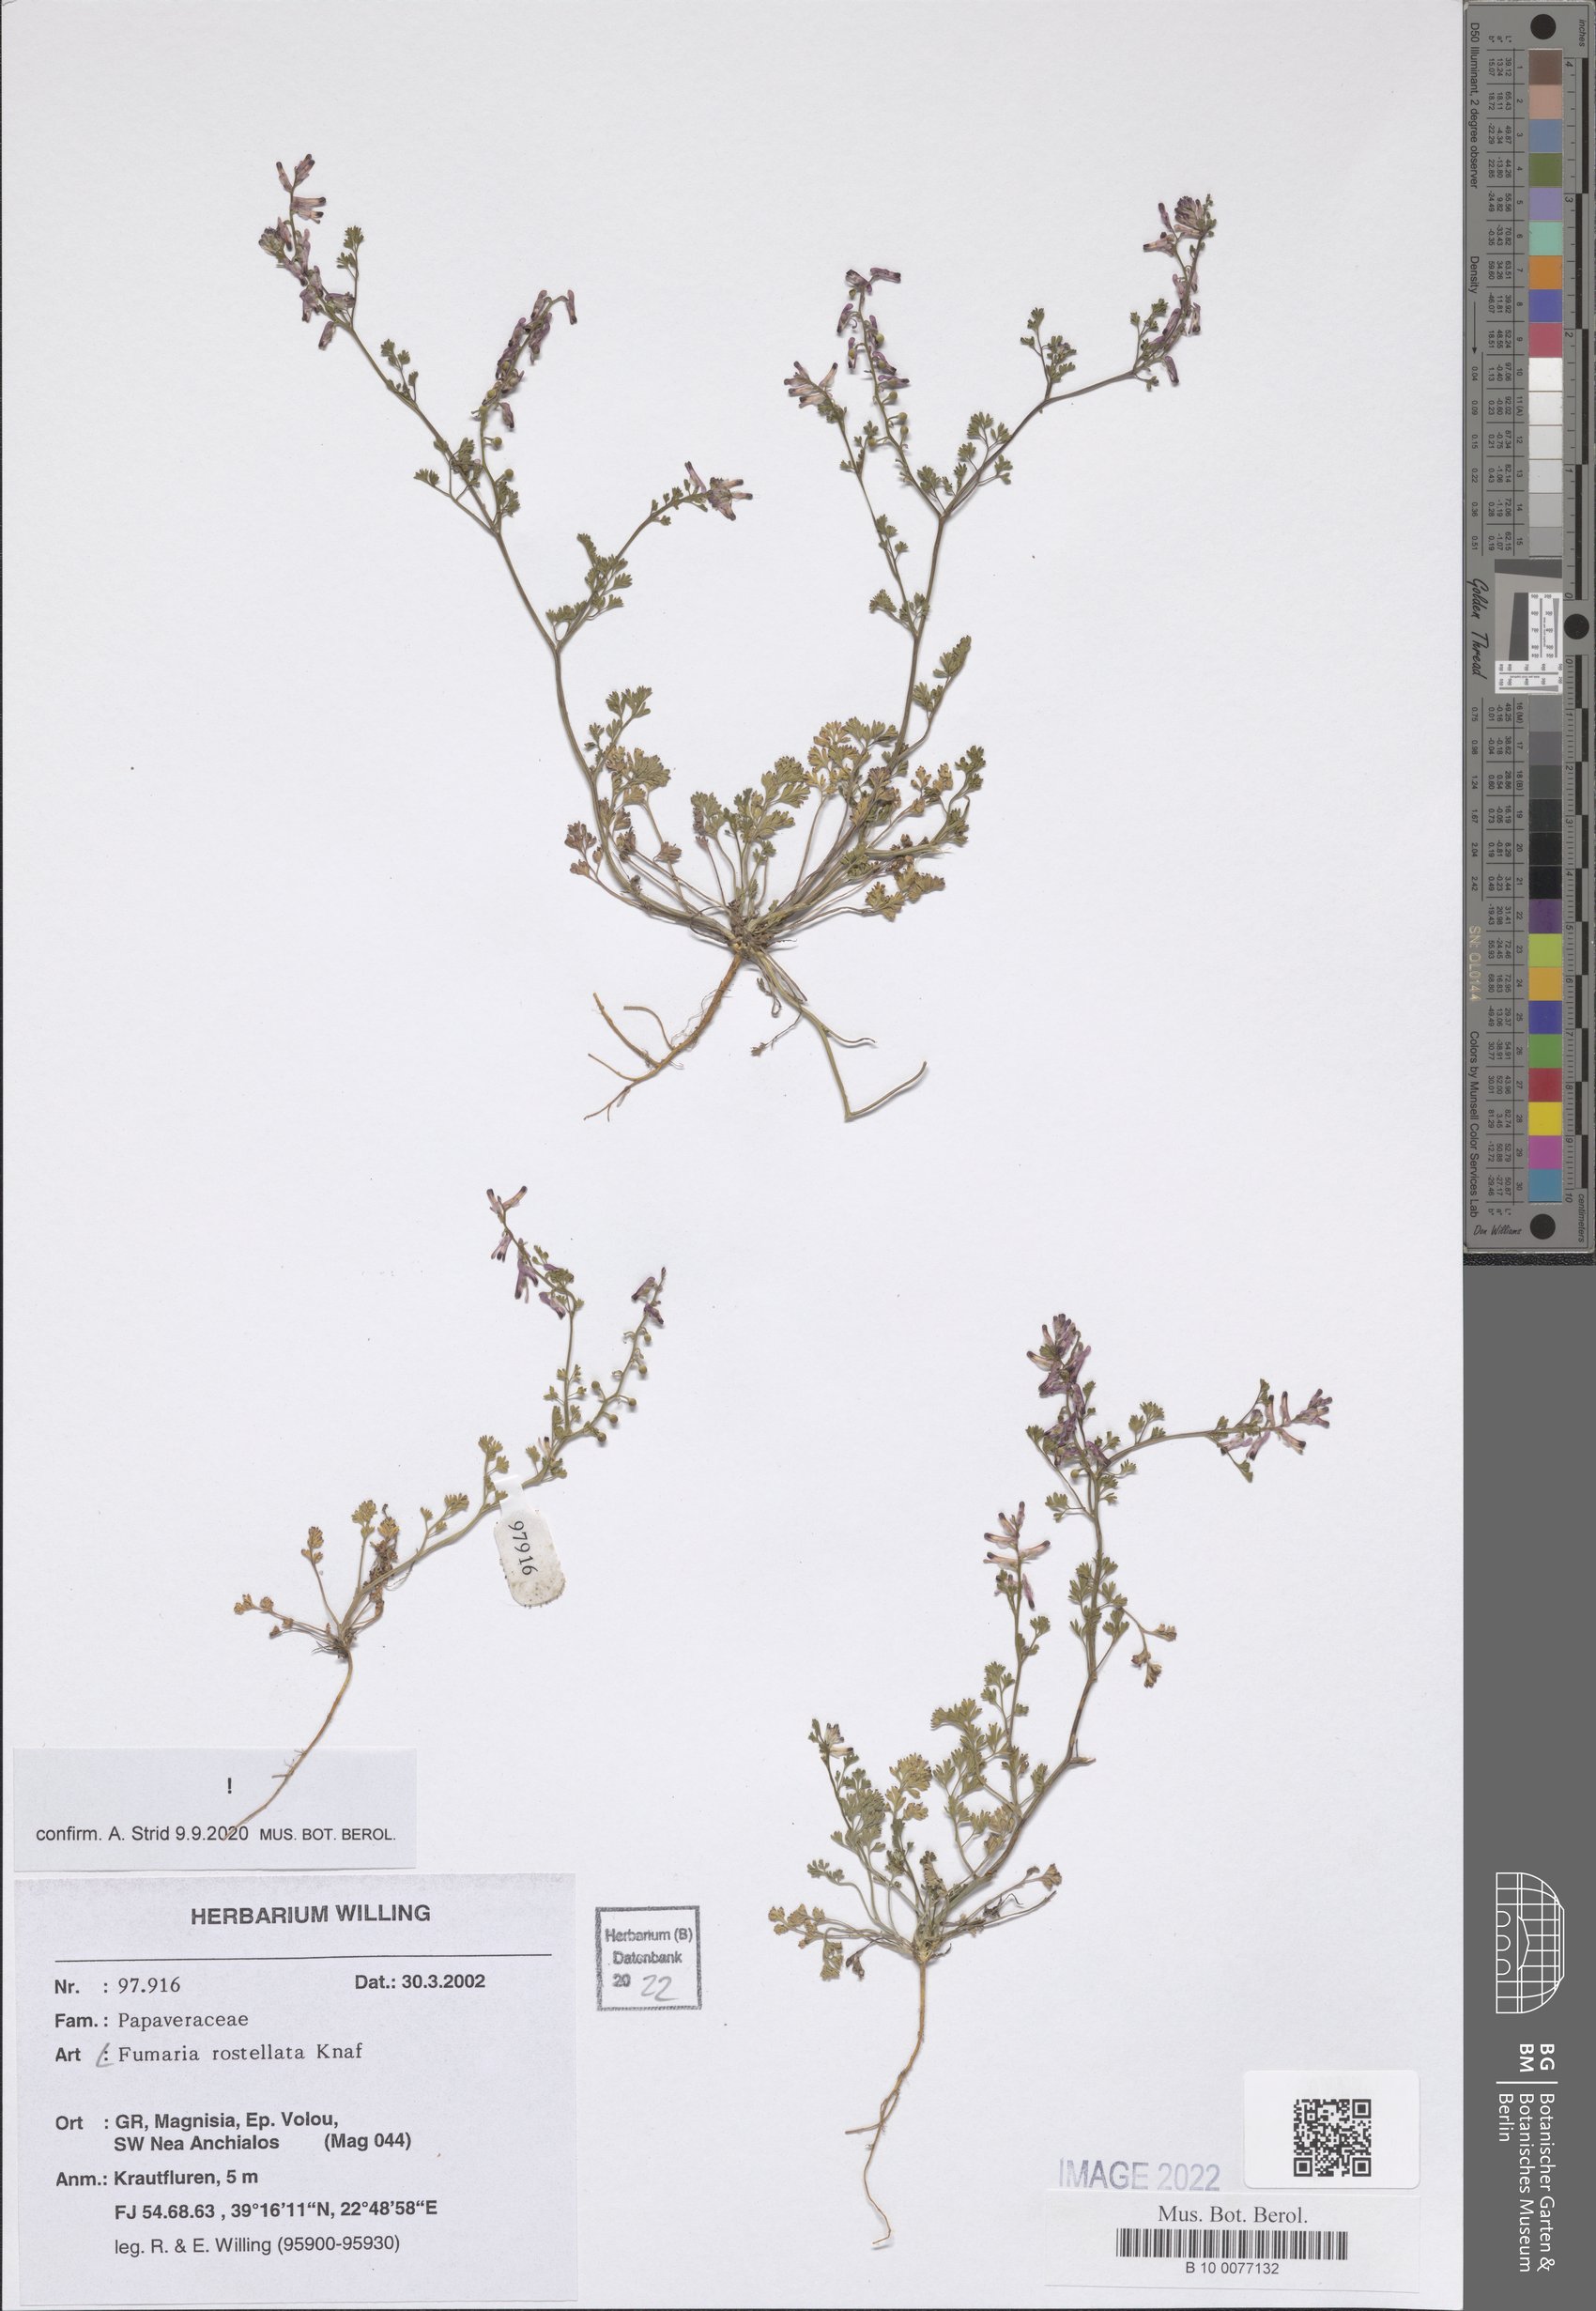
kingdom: Plantae
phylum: Tracheophyta
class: Magnoliopsida
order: Ranunculales
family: Papaveraceae
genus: Fumaria
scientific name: Fumaria rostellata
